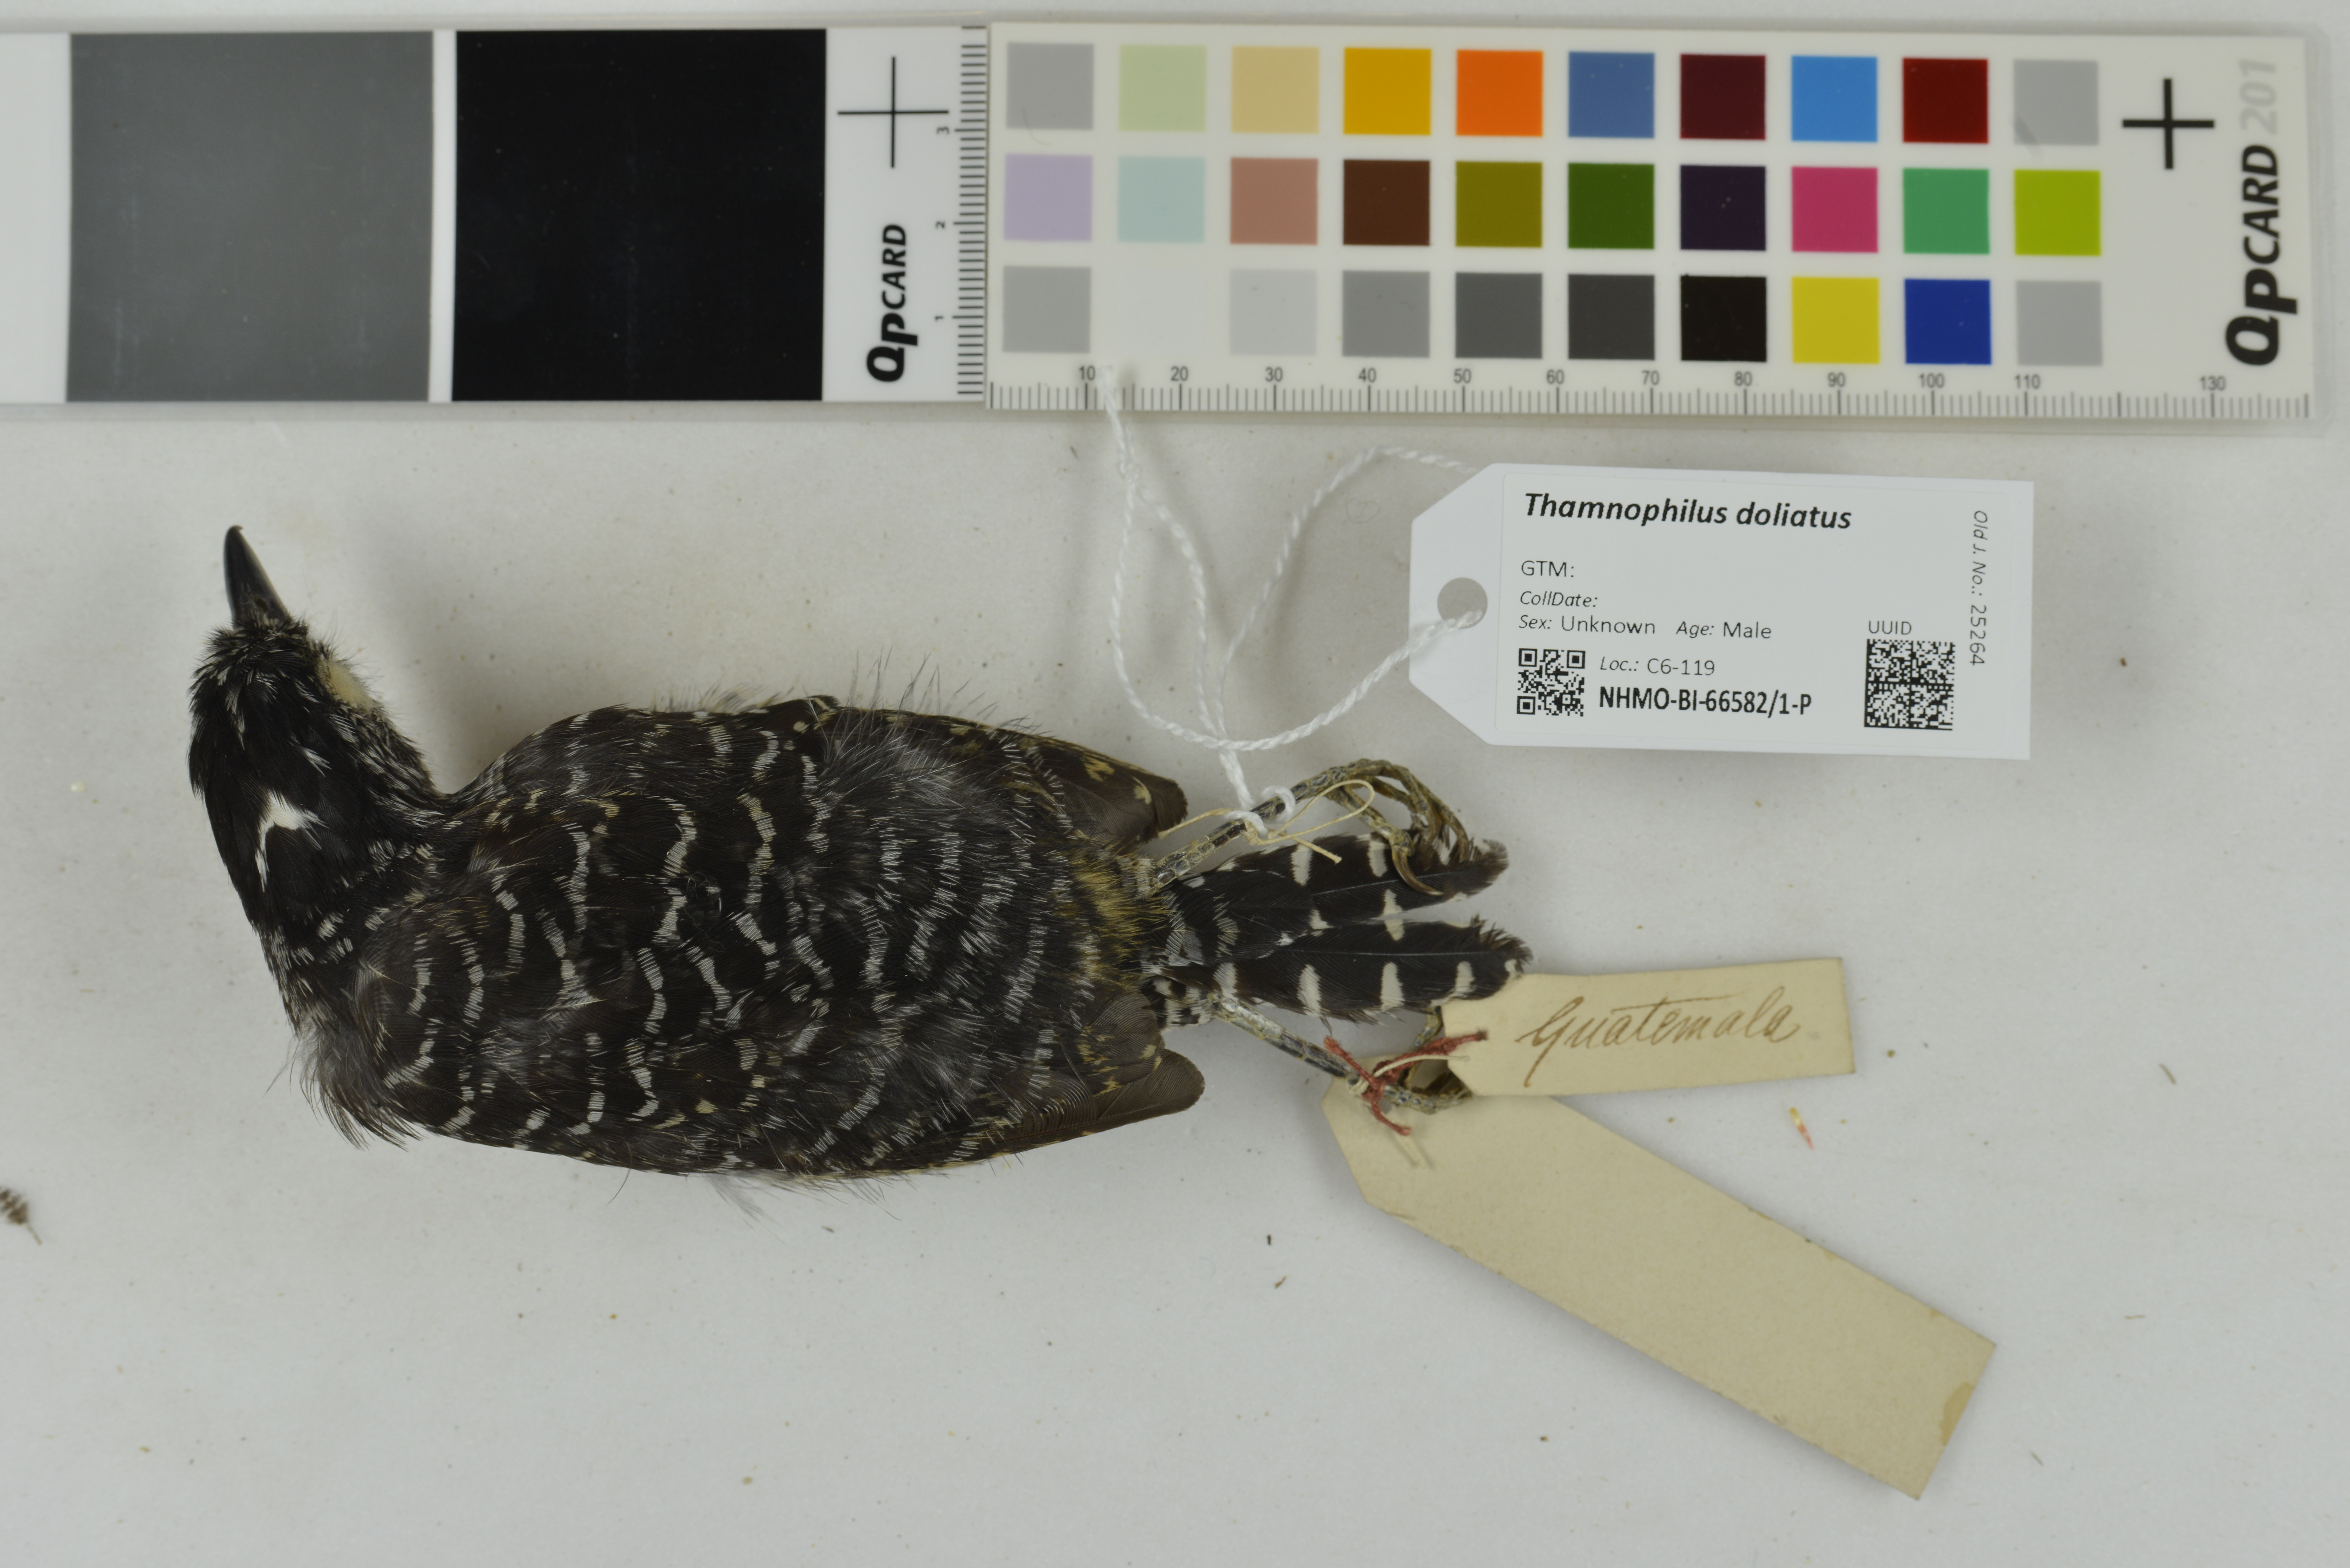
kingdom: Animalia
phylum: Chordata
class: Aves
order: Passeriformes
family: Thamnophilidae
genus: Thamnophilus
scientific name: Thamnophilus doliatus
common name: Barred antshrike
